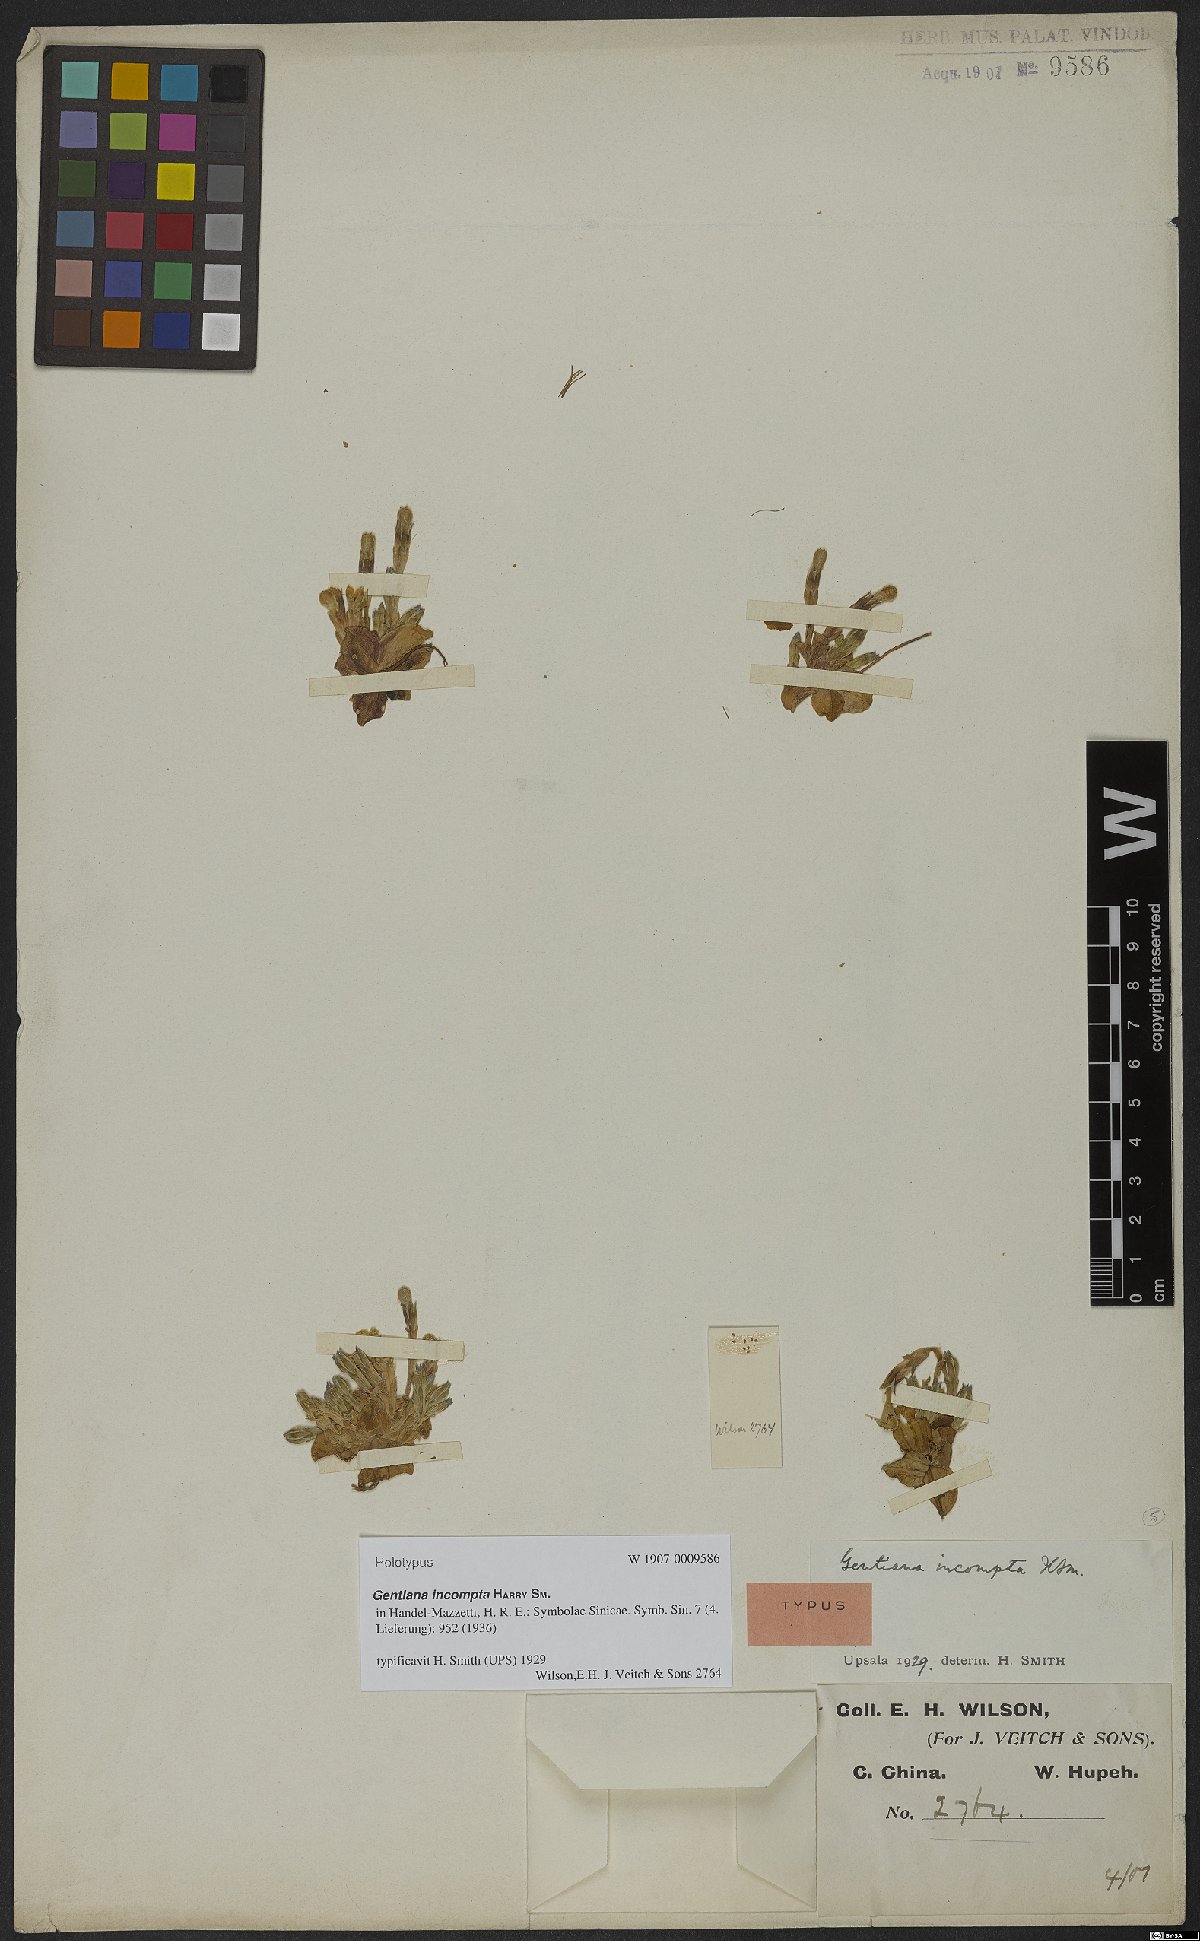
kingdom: Plantae
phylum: Tracheophyta
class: Magnoliopsida
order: Gentianales
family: Gentianaceae
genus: Gentiana
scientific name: Gentiana chungtienensis
